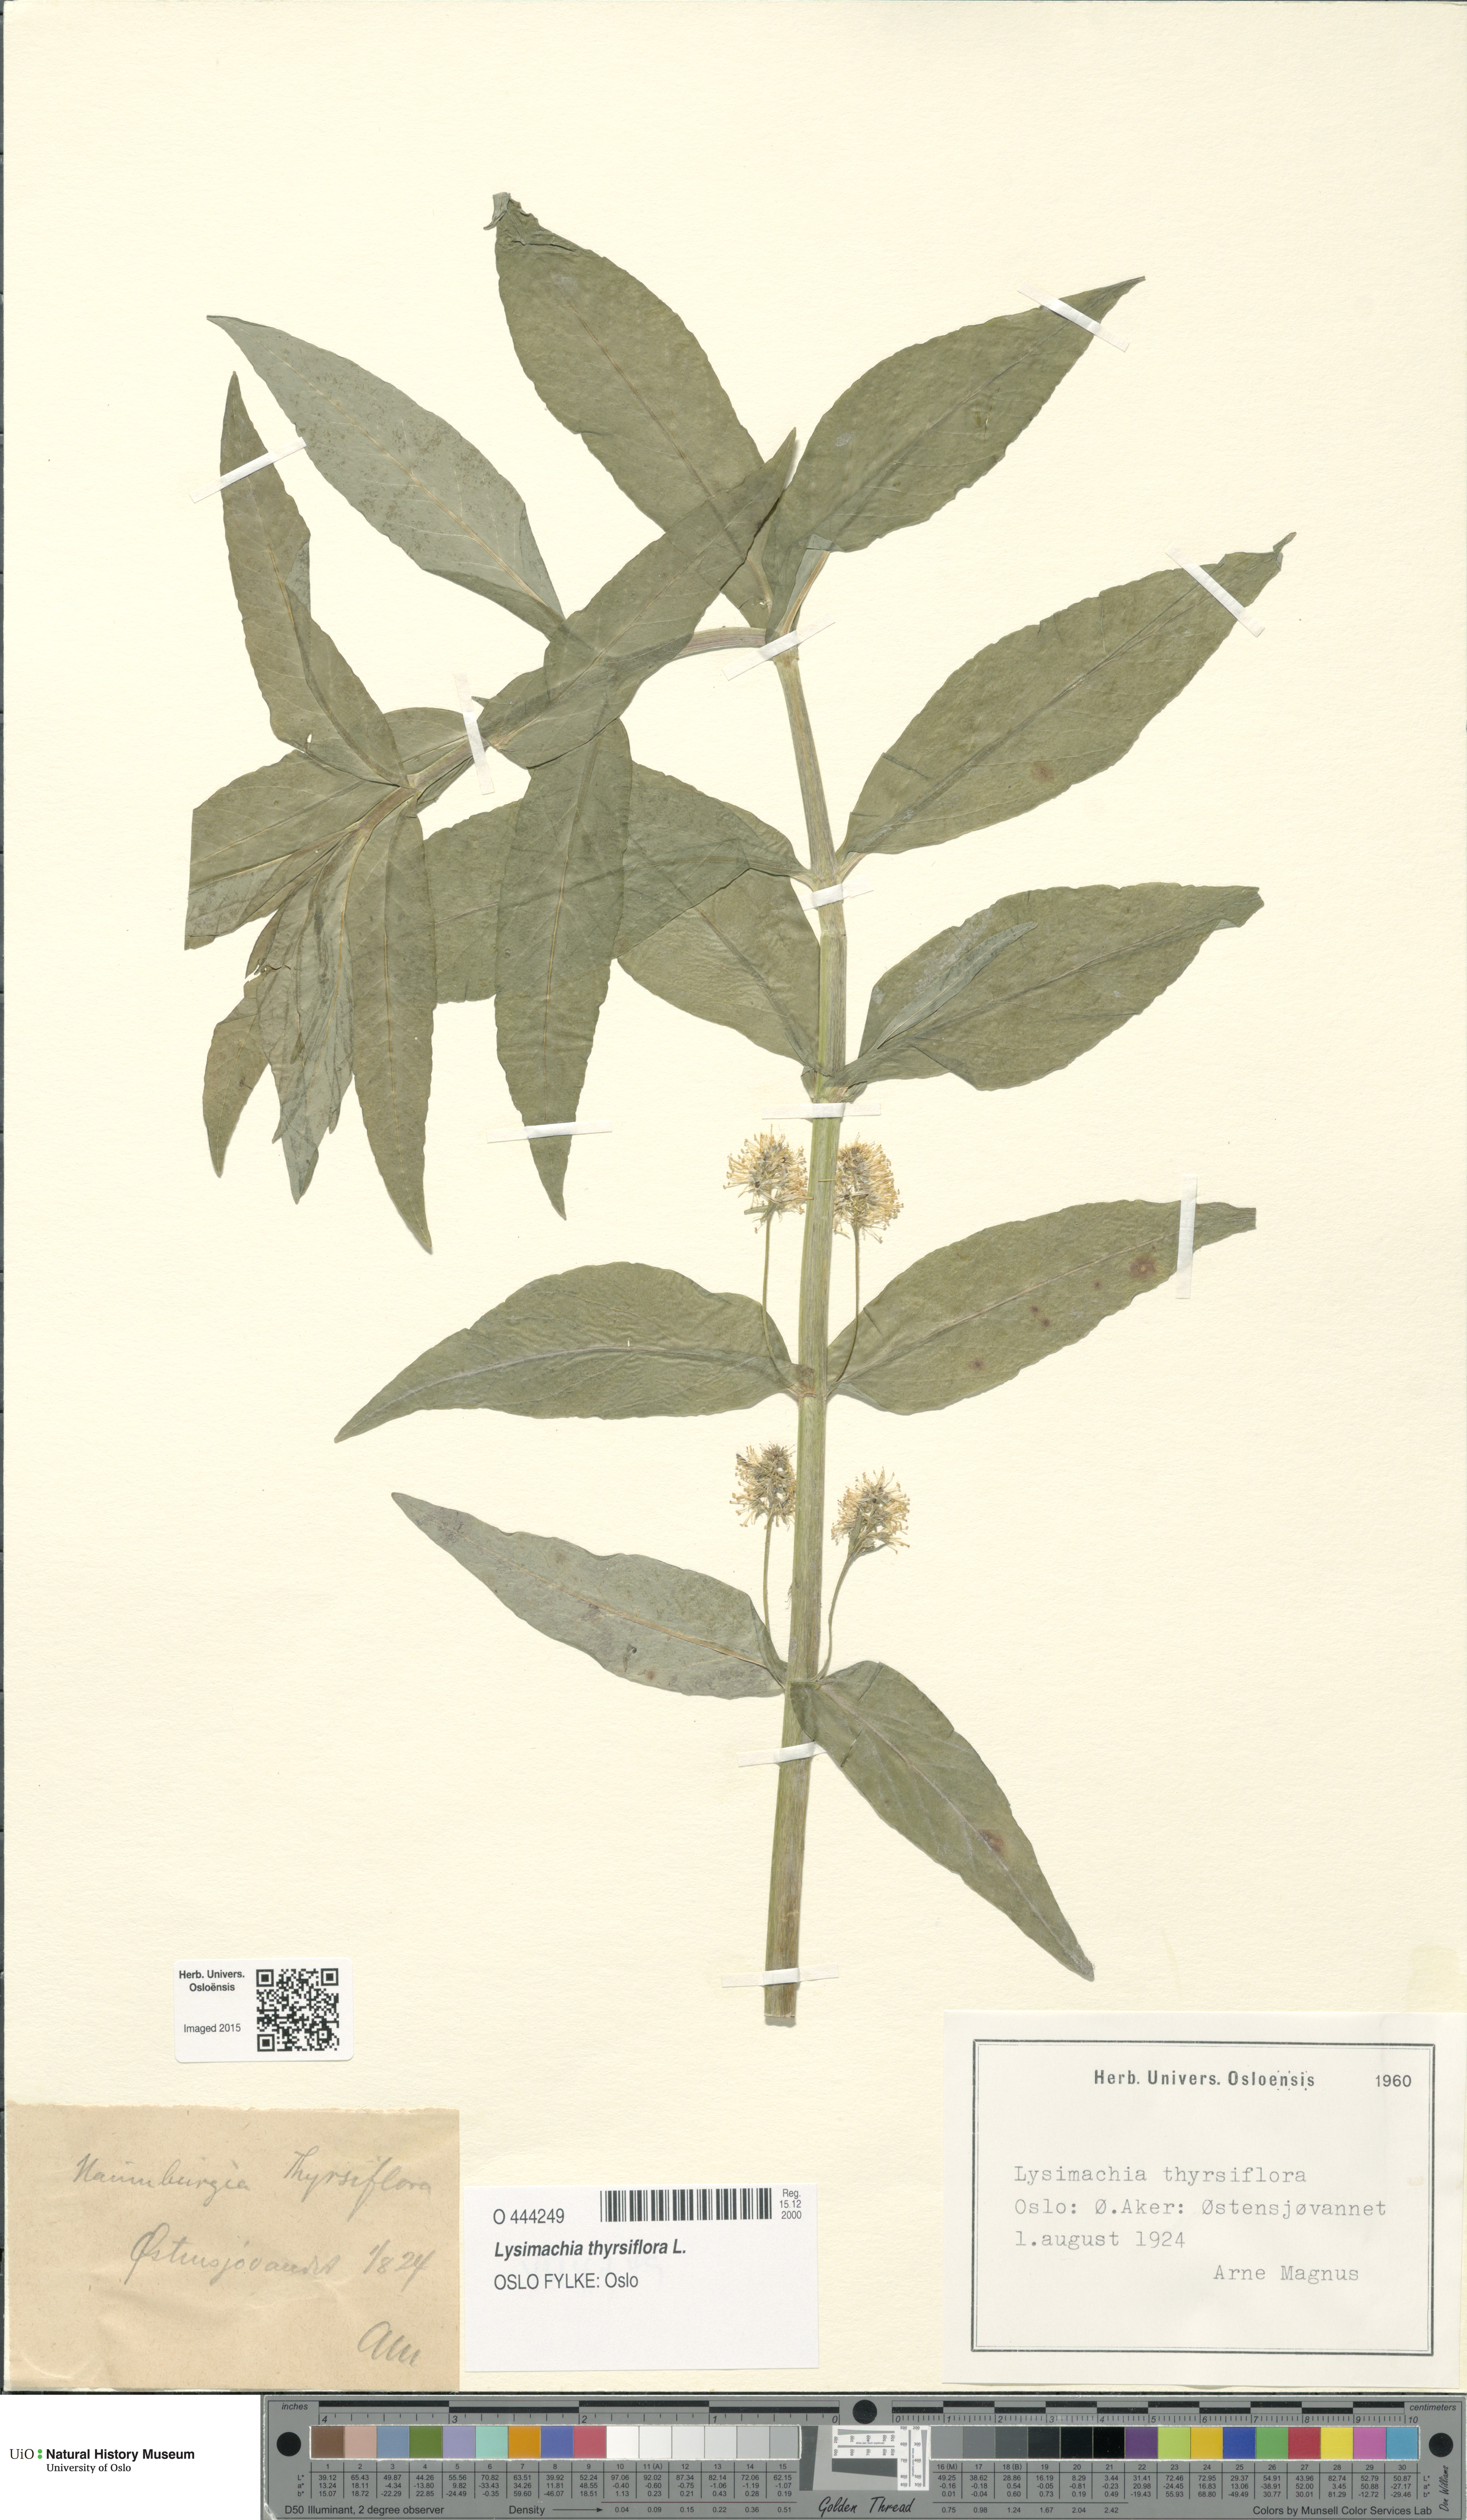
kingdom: Plantae
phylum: Tracheophyta
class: Magnoliopsida
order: Ericales
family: Primulaceae
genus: Lysimachia
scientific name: Lysimachia thyrsiflora
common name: Tufted loosestrife
